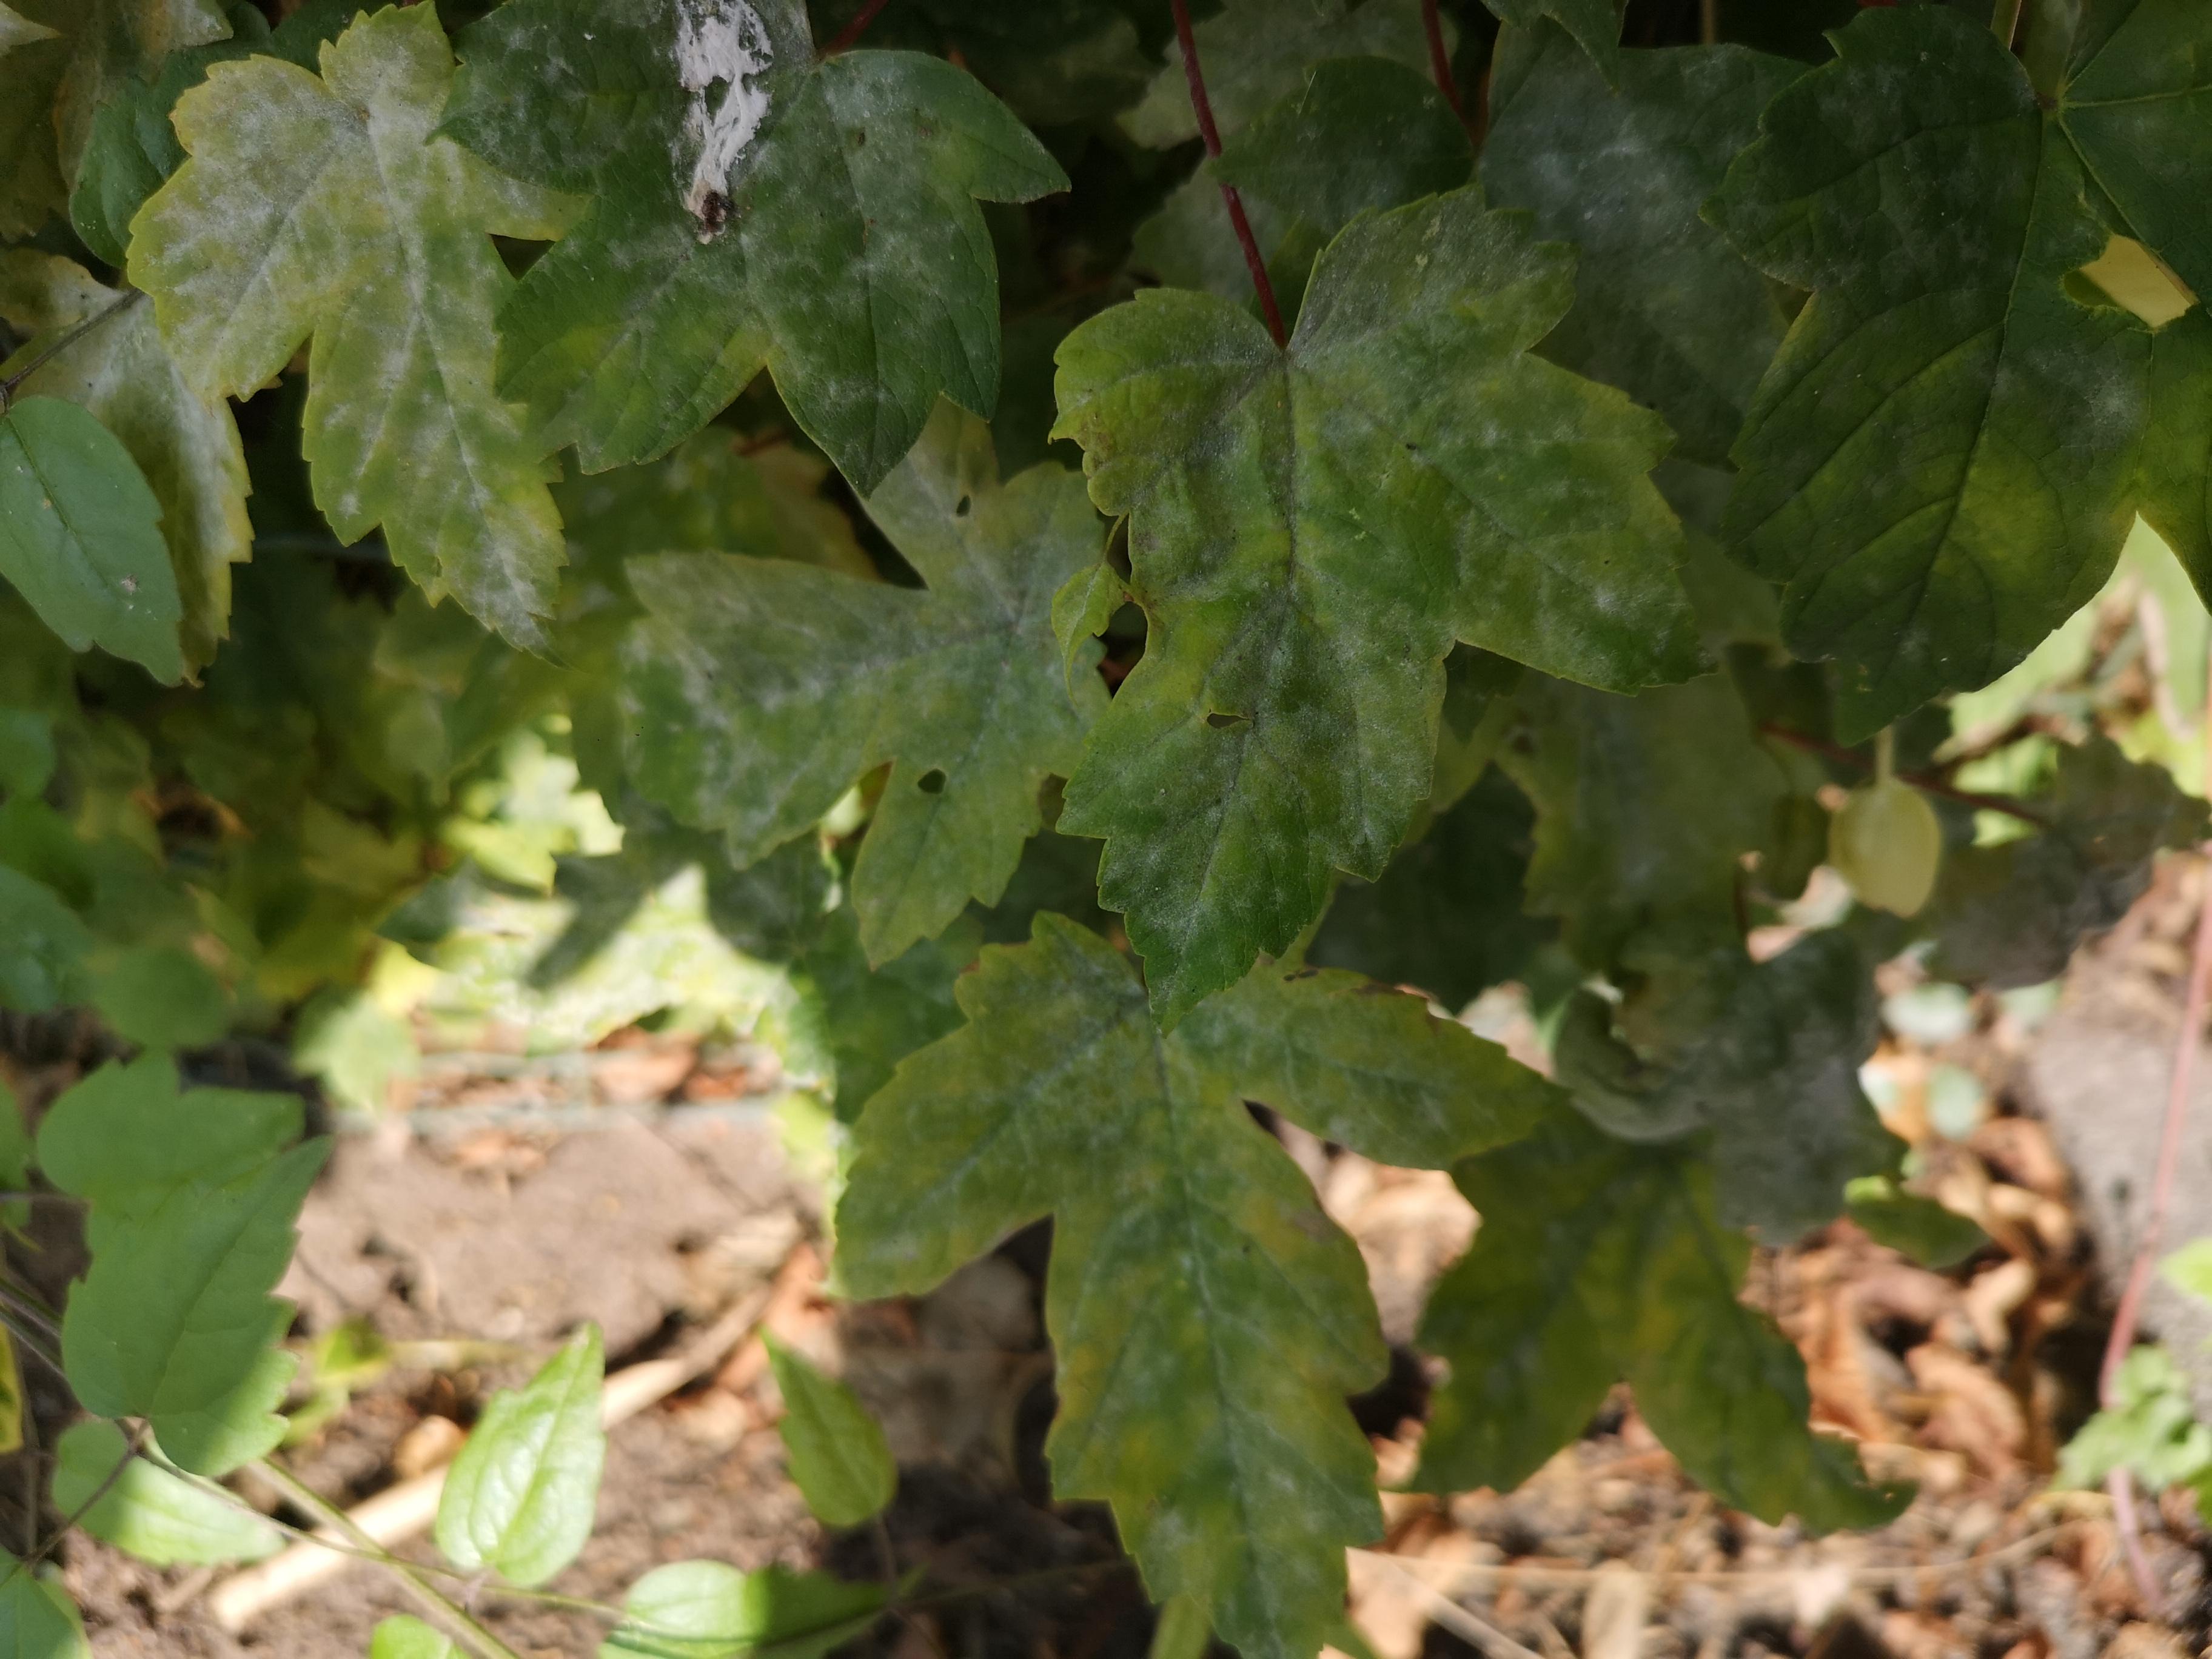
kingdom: Fungi
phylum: Ascomycota
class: Leotiomycetes
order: Helotiales
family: Erysiphaceae
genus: Sawadaea
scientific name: Sawadaea bicornis
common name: Maple mildew
